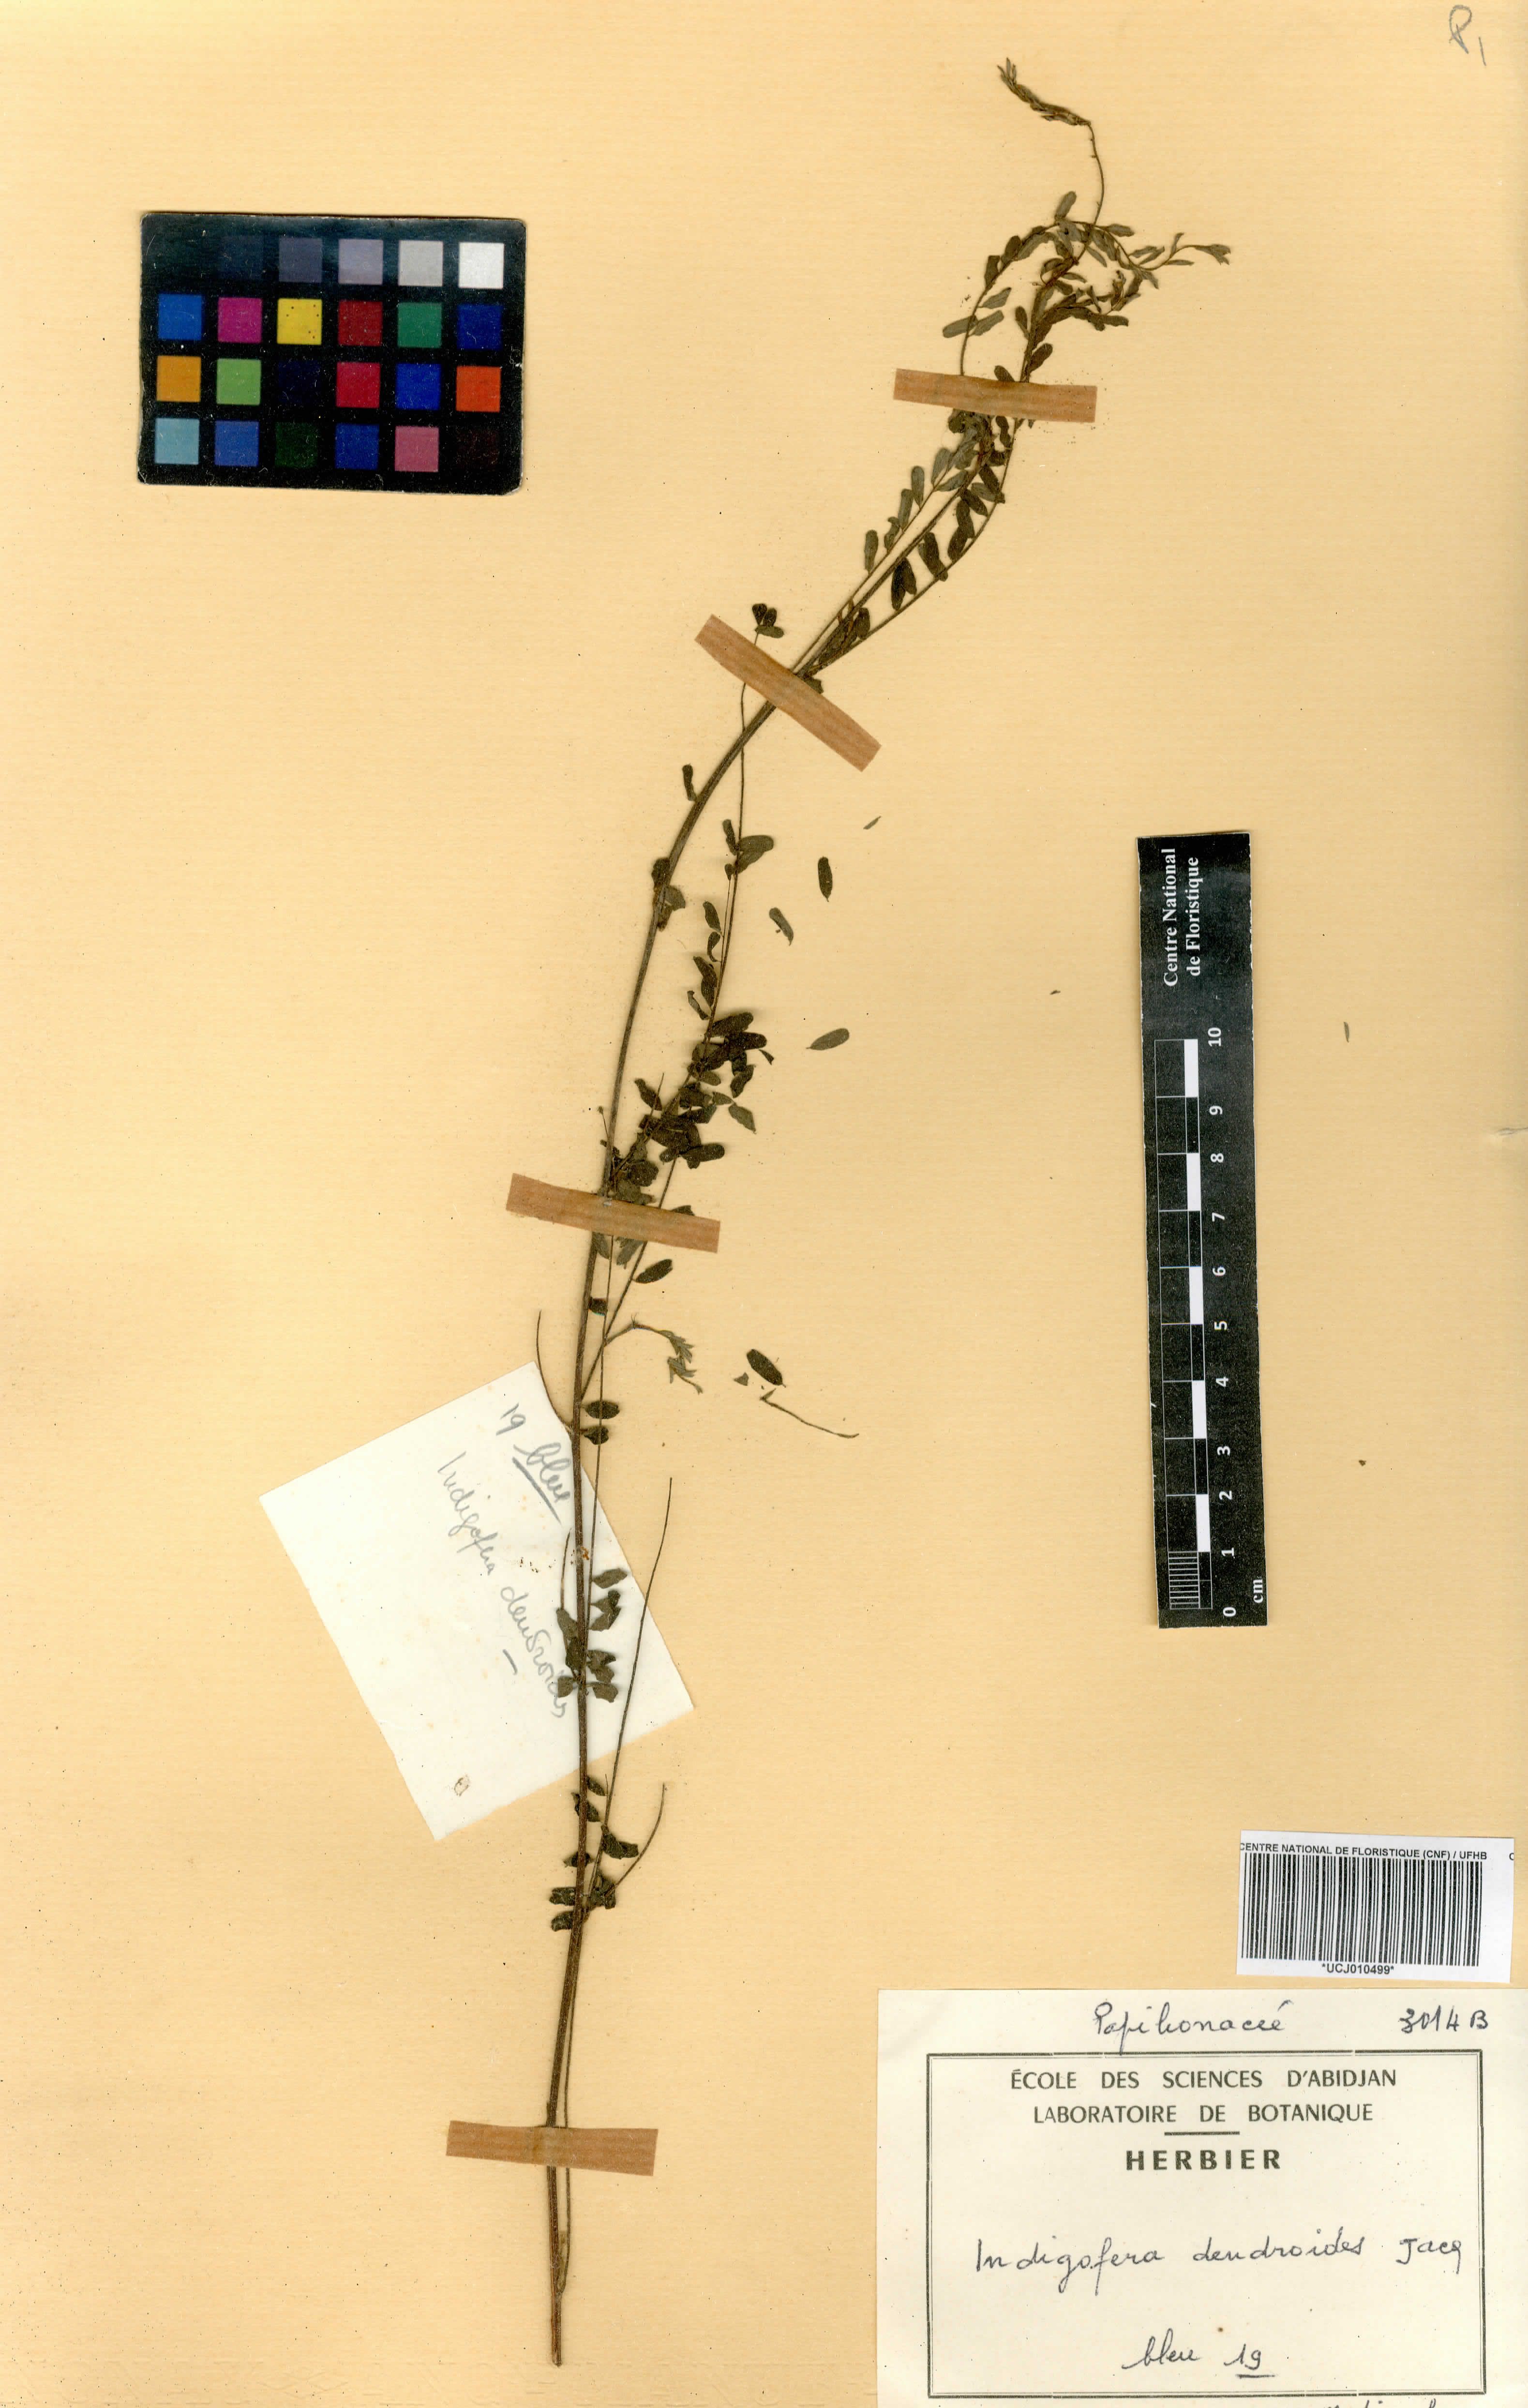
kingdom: Plantae
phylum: Tracheophyta
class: Magnoliopsida
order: Fabales
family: Fabaceae
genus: Indigofera
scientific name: Indigofera dendroides
